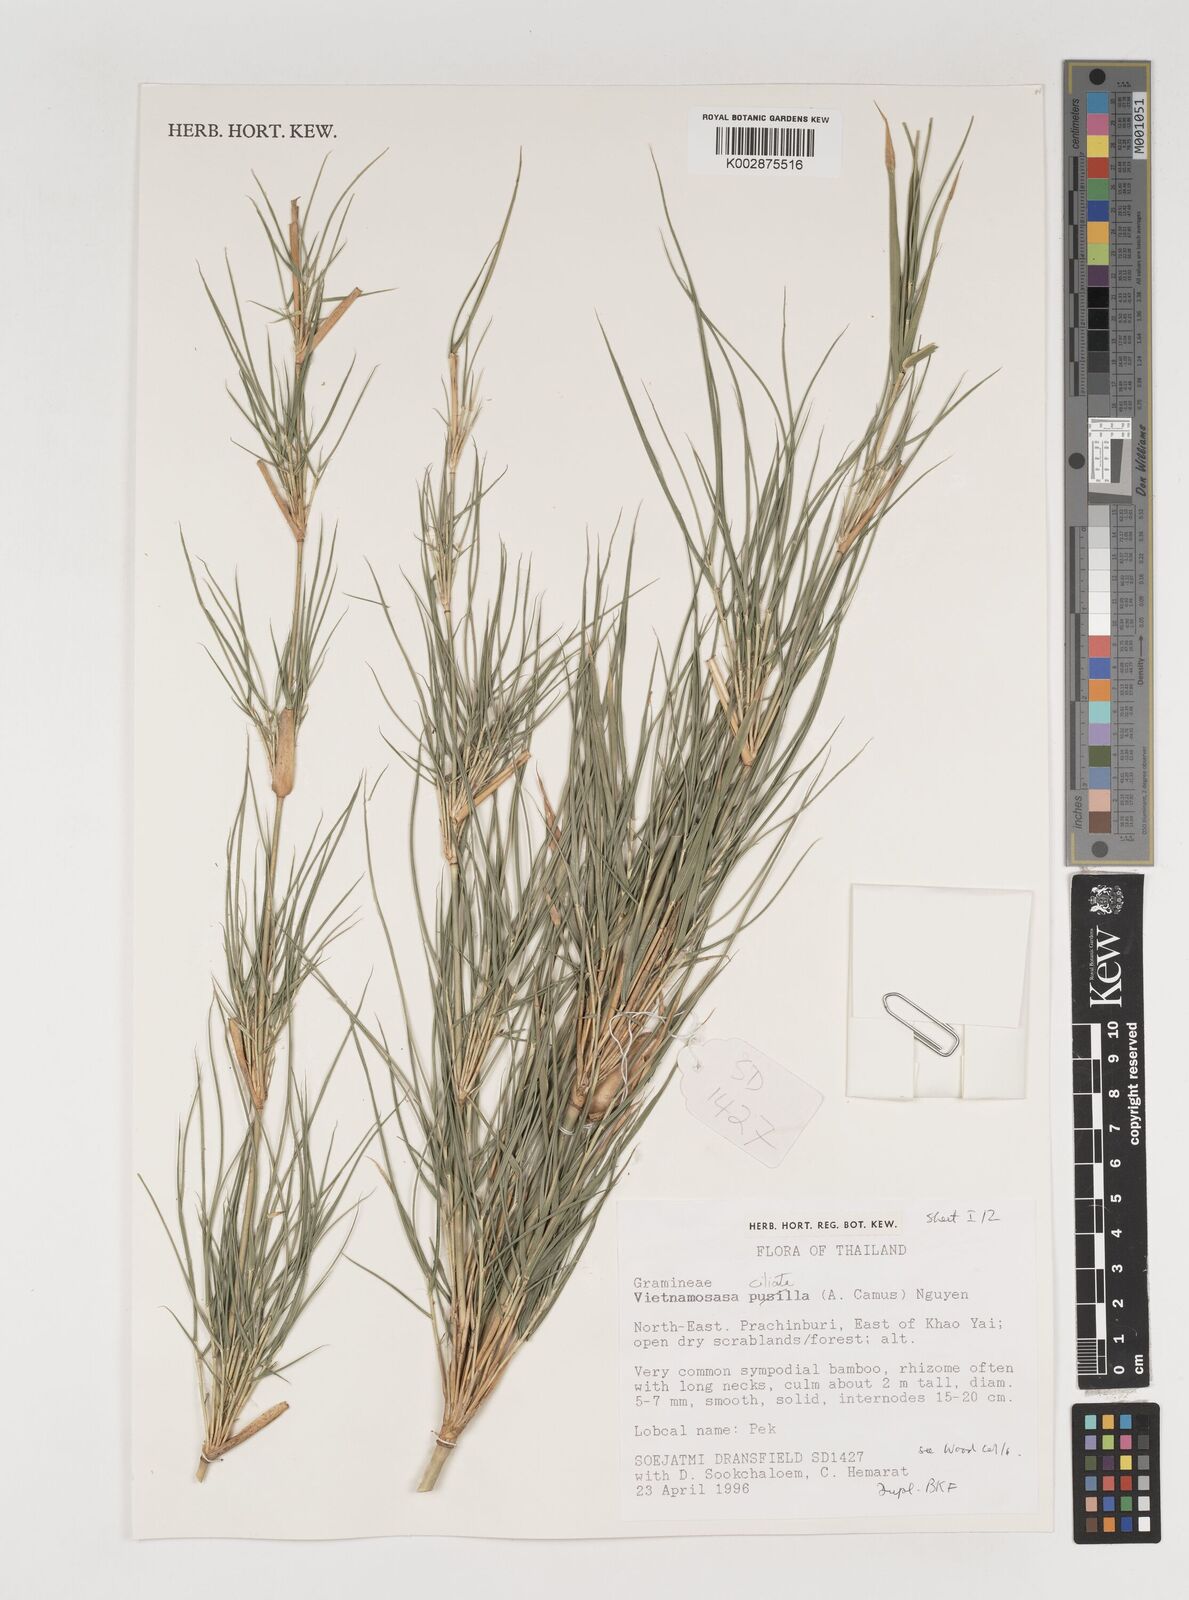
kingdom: Plantae
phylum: Tracheophyta
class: Liliopsida
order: Poales
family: Poaceae
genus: Vietnamosasa
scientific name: Vietnamosasa
